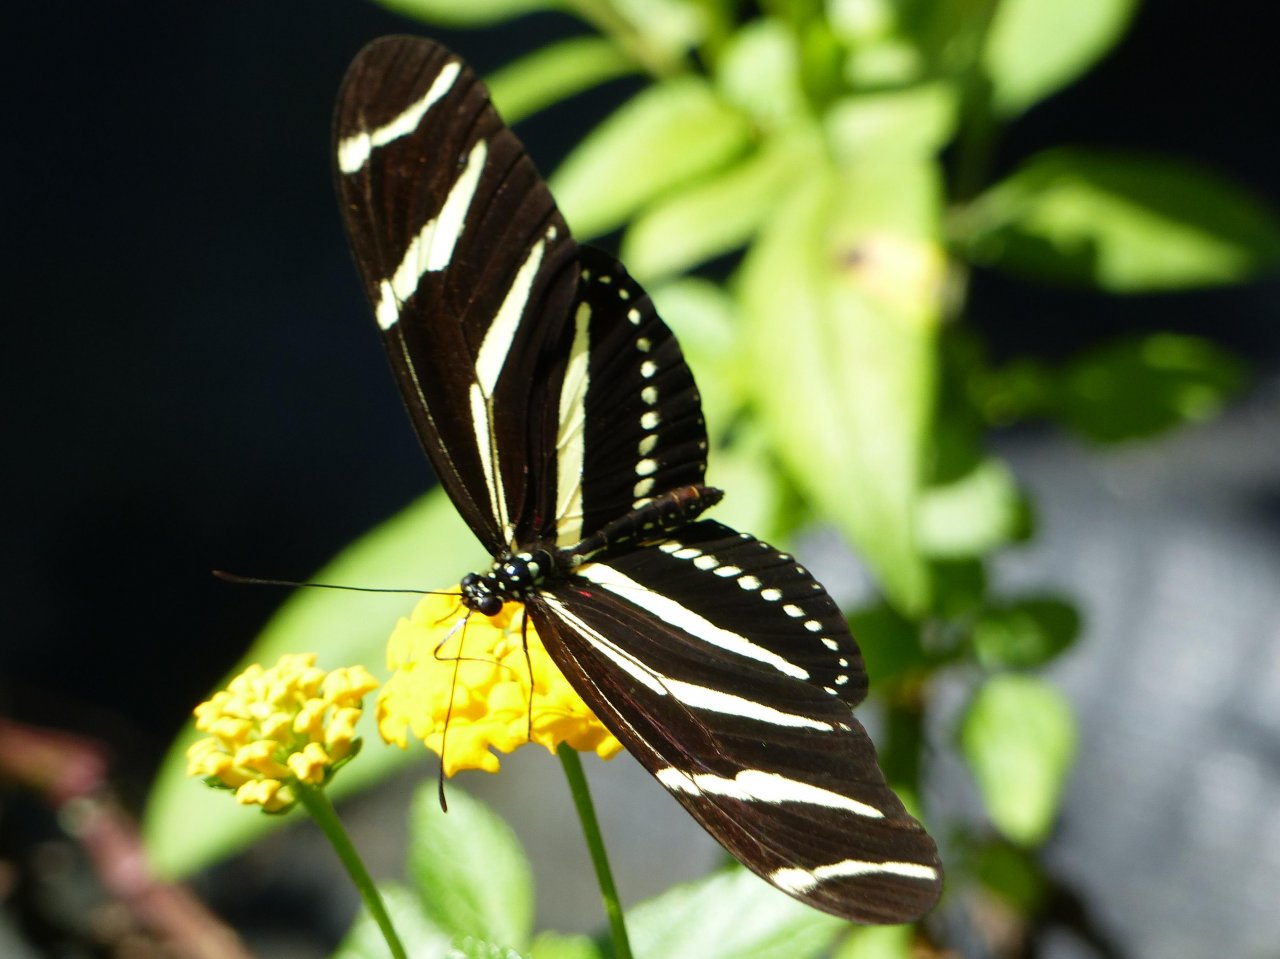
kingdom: Animalia
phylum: Arthropoda
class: Insecta
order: Lepidoptera
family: Nymphalidae
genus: Heliconius
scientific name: Heliconius charithonia
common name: Zebra Longwing
